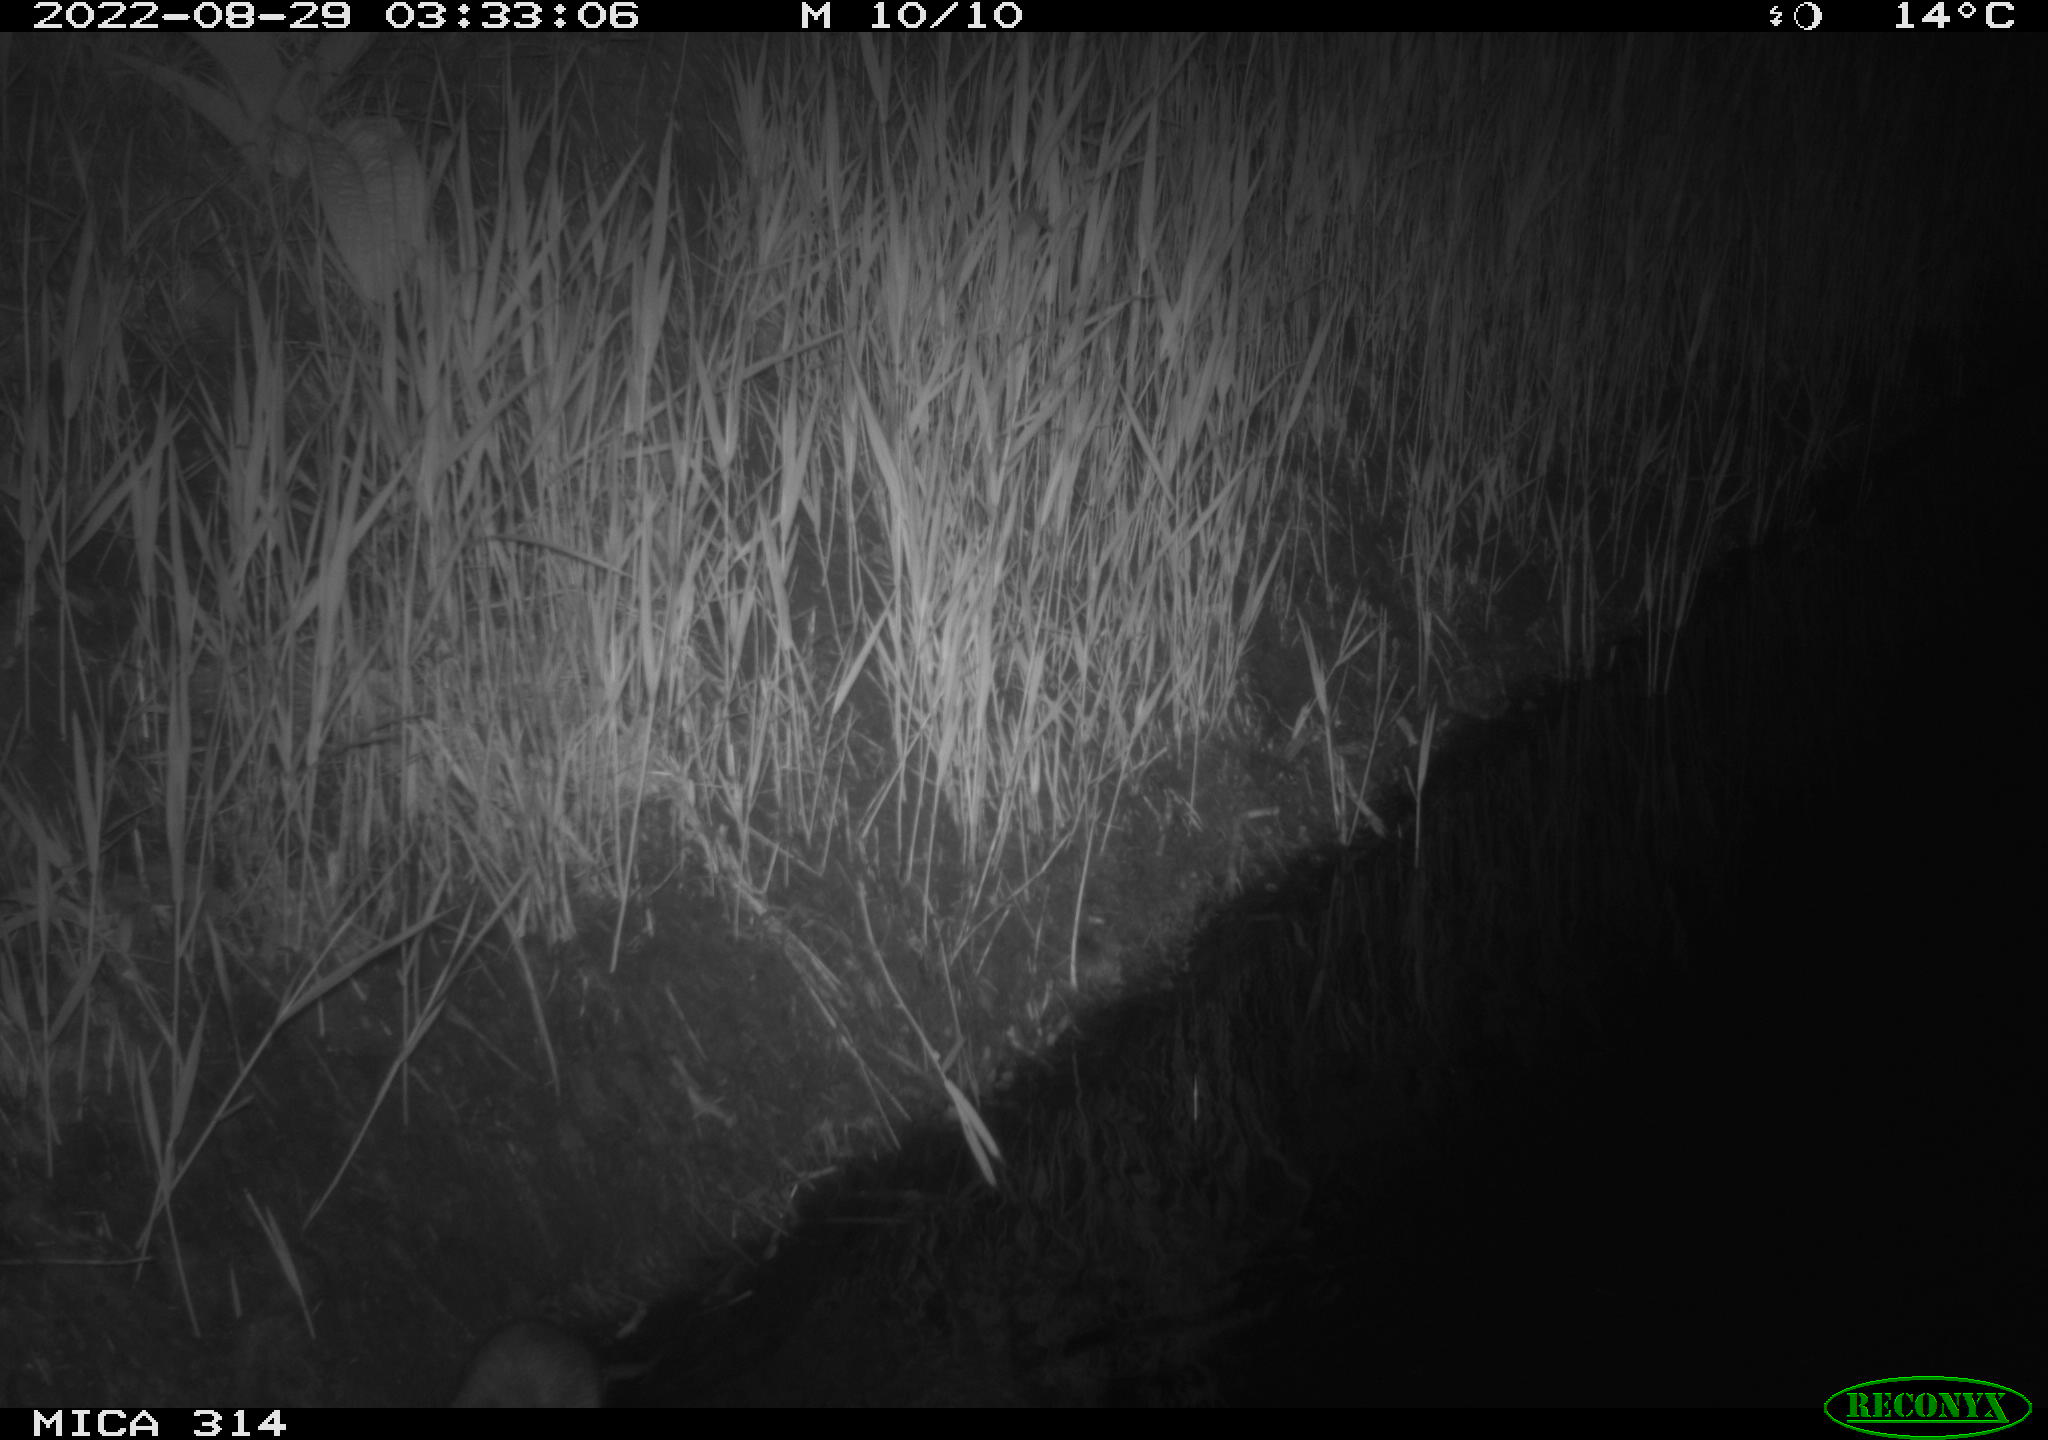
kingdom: Animalia
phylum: Chordata
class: Mammalia
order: Rodentia
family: Muridae
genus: Rattus
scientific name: Rattus norvegicus
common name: Brown rat
